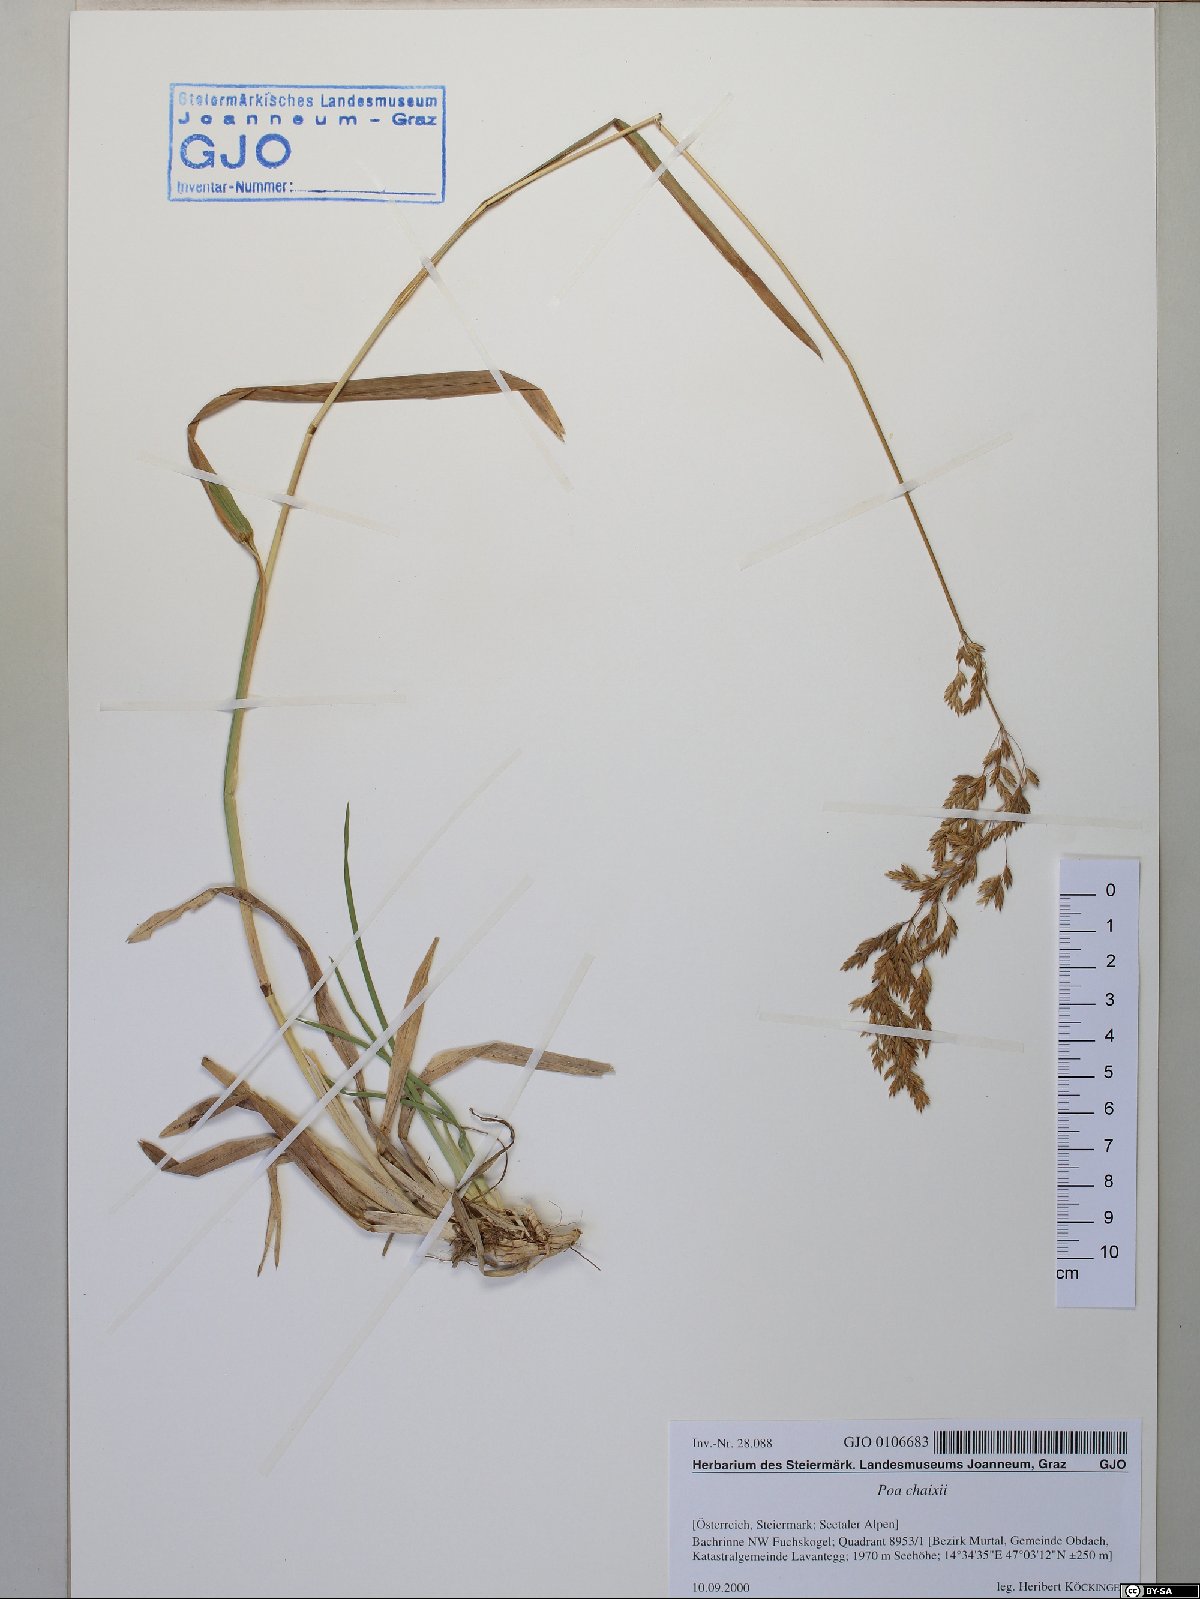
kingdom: Plantae
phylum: Tracheophyta
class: Liliopsida
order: Poales
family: Poaceae
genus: Poa
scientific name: Poa chaixii
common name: Broad-leaved meadow-grass
